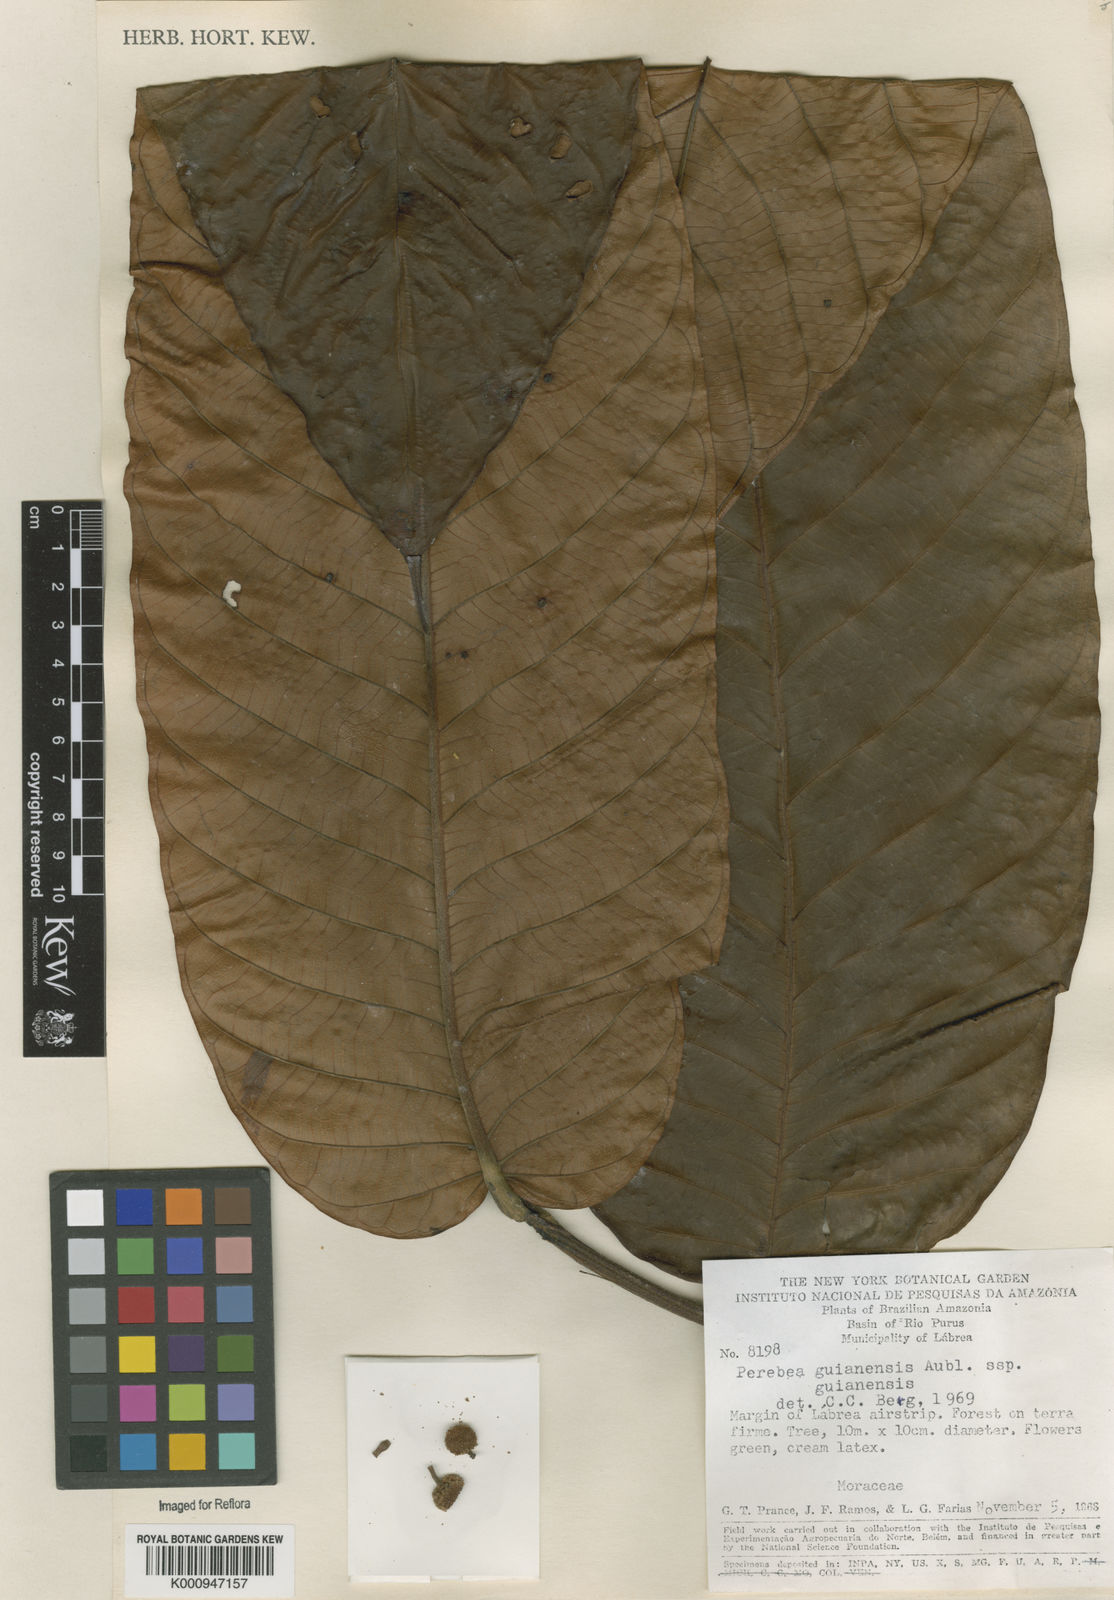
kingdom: Plantae
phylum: Tracheophyta
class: Magnoliopsida
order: Rosales
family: Moraceae
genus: Perebea
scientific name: Perebea guianensis
